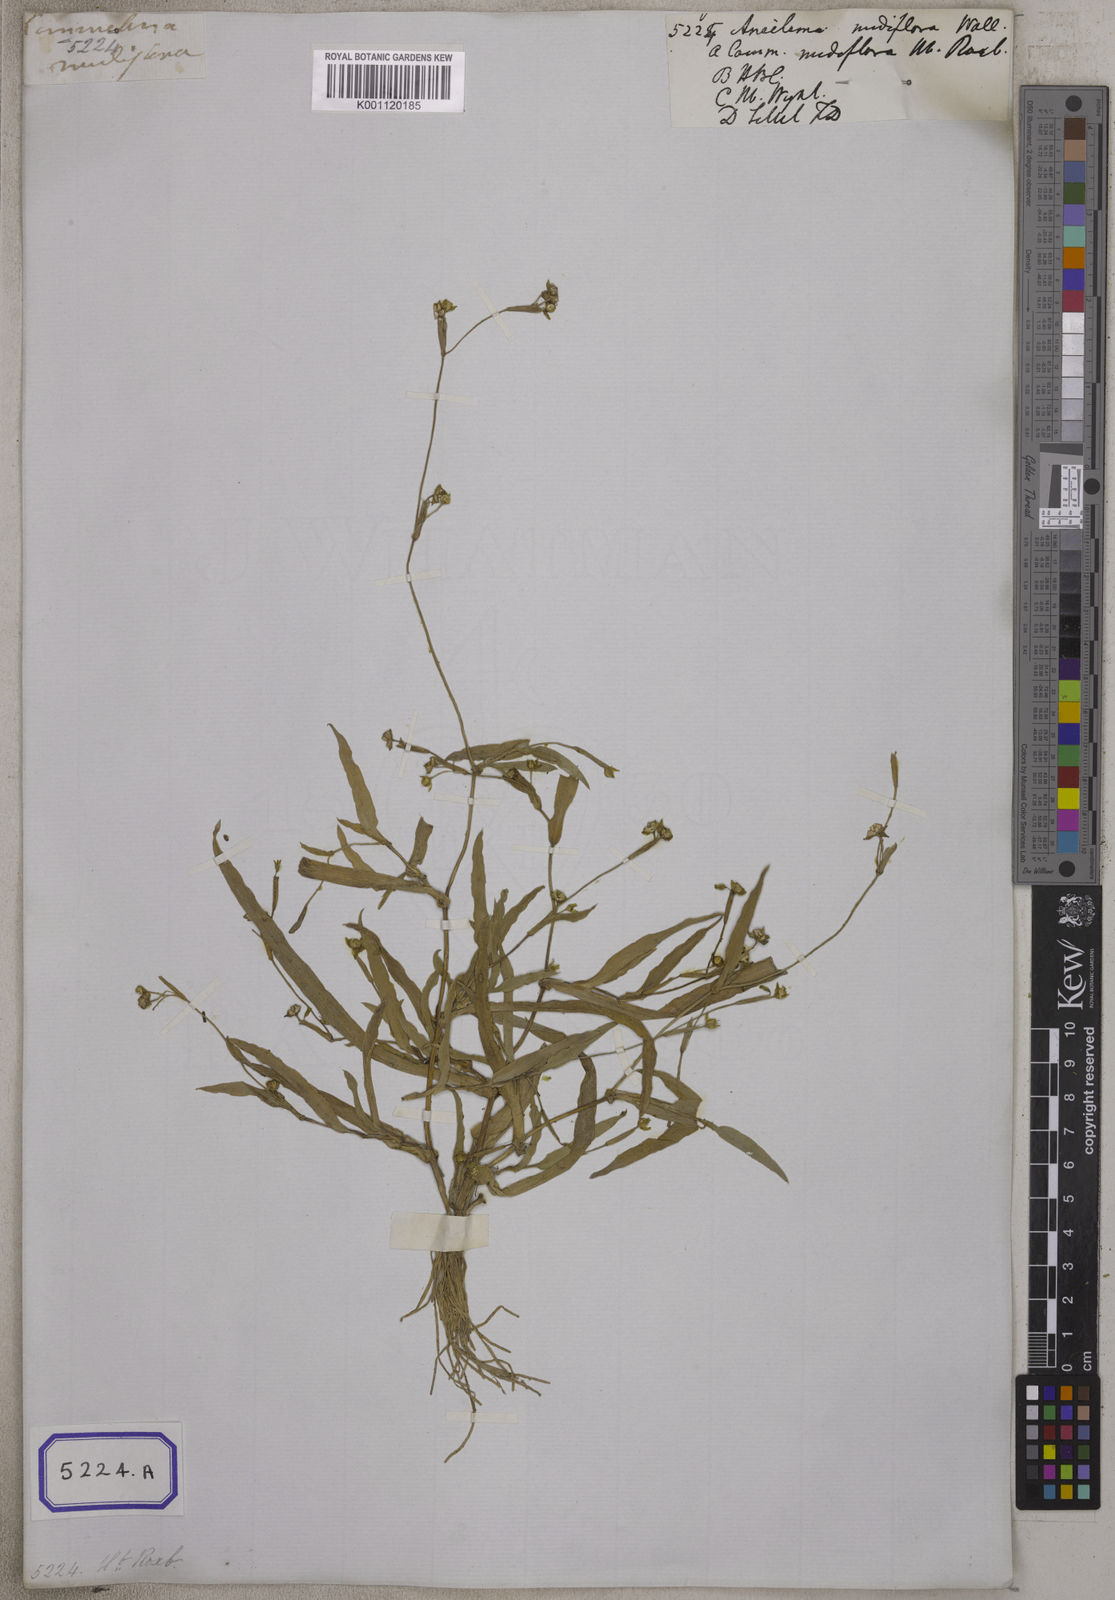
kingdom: Plantae
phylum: Tracheophyta
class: Liliopsida
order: Commelinales
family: Commelinaceae
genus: Aneilema
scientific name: Aneilema
